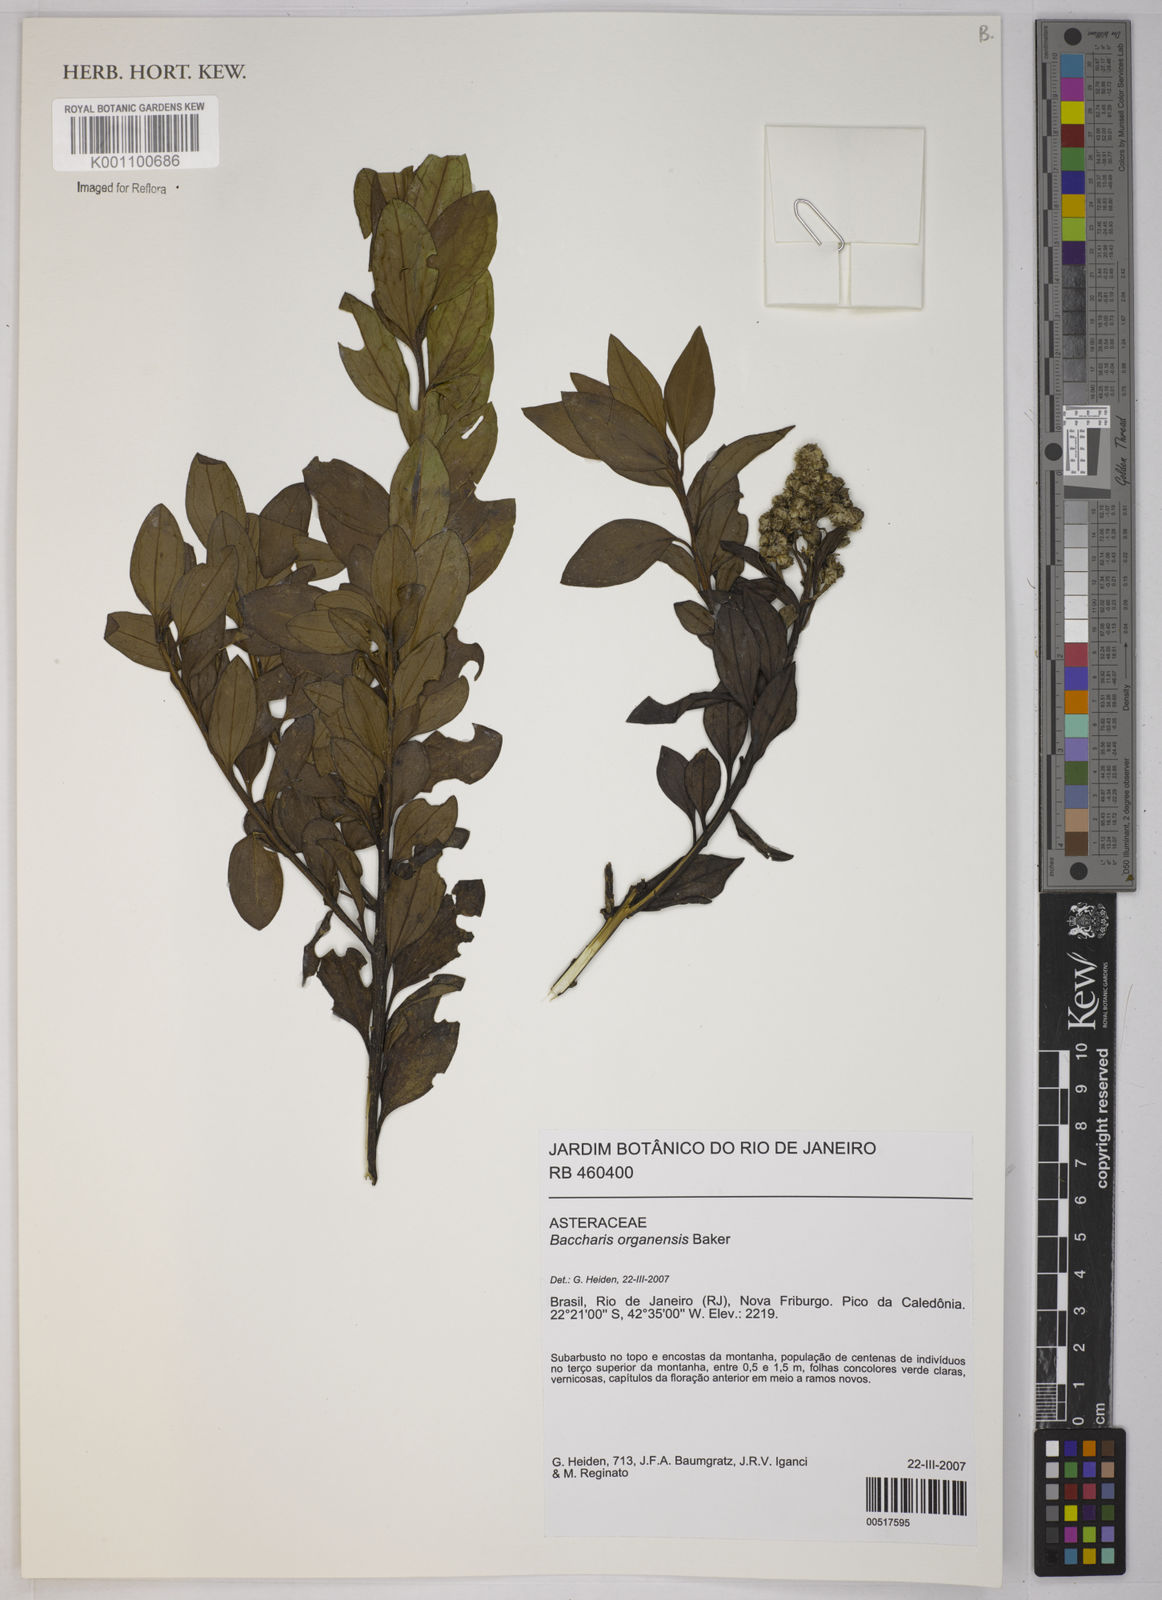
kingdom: Plantae
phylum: Tracheophyta
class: Magnoliopsida
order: Asterales
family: Asteraceae
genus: Baccharis
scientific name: Baccharis organensis
